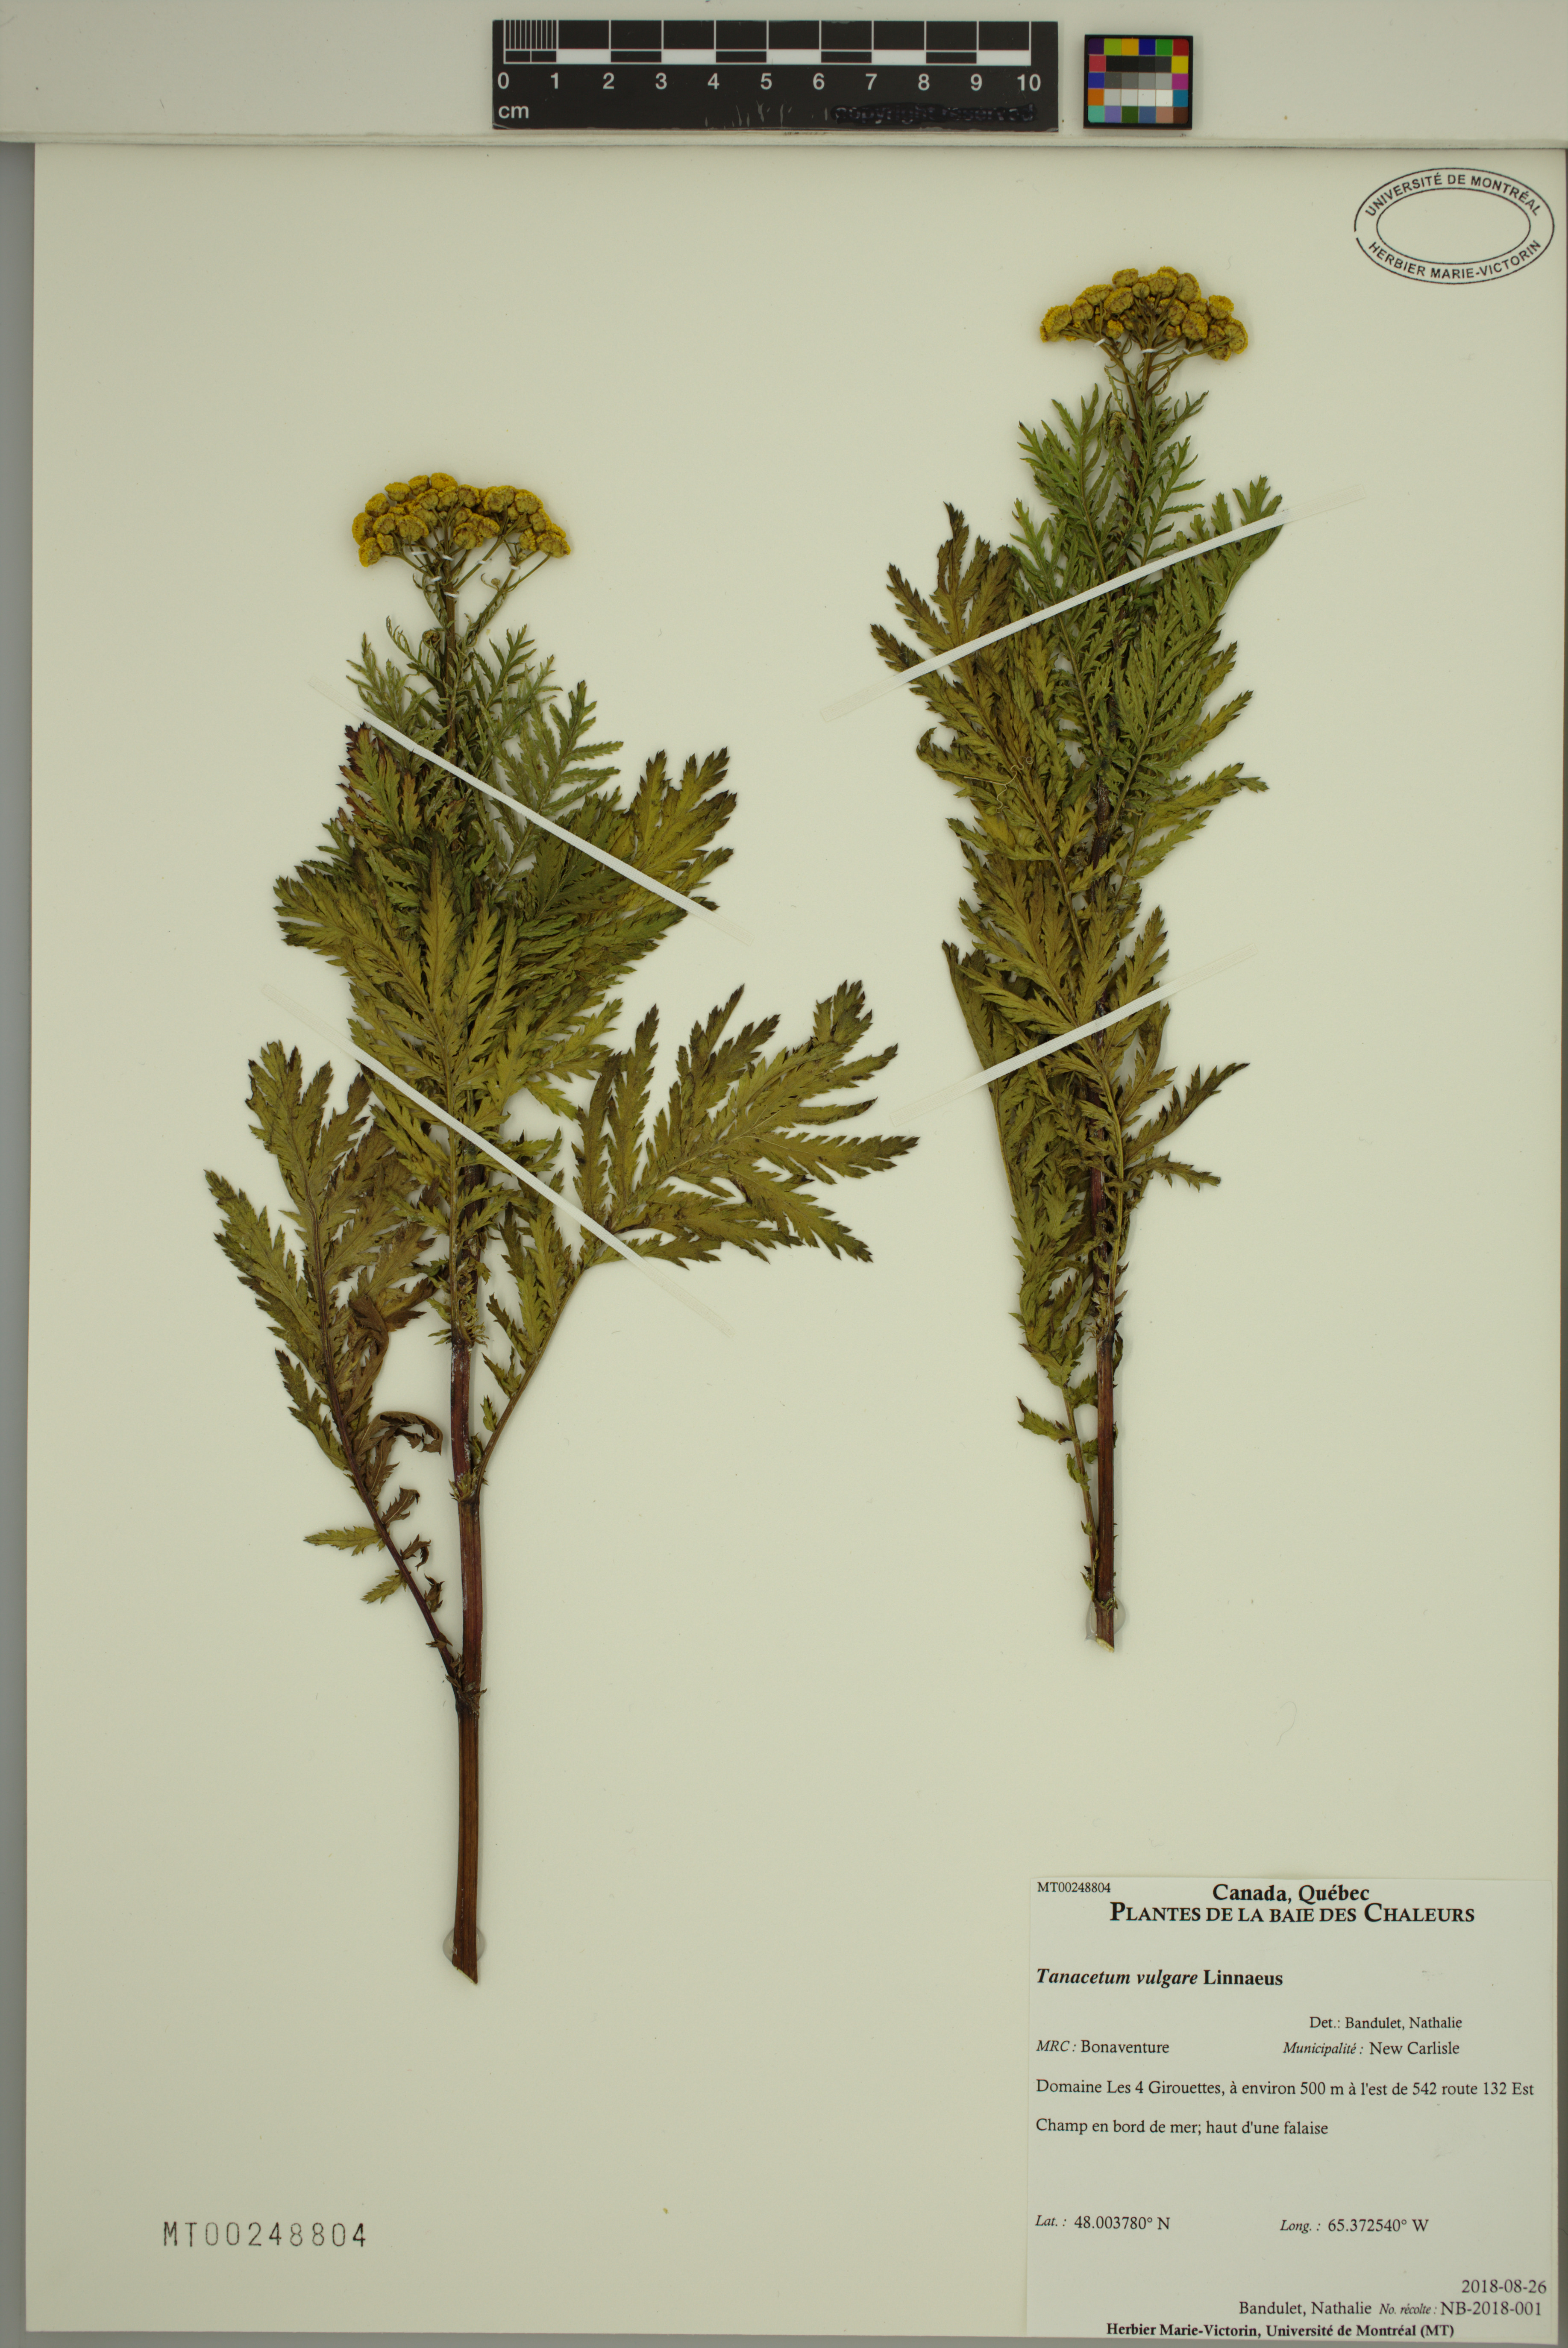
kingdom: Plantae
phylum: Tracheophyta
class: Magnoliopsida
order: Asterales
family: Asteraceae
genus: Tanacetum
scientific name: Tanacetum vulgare
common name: Common tansy
